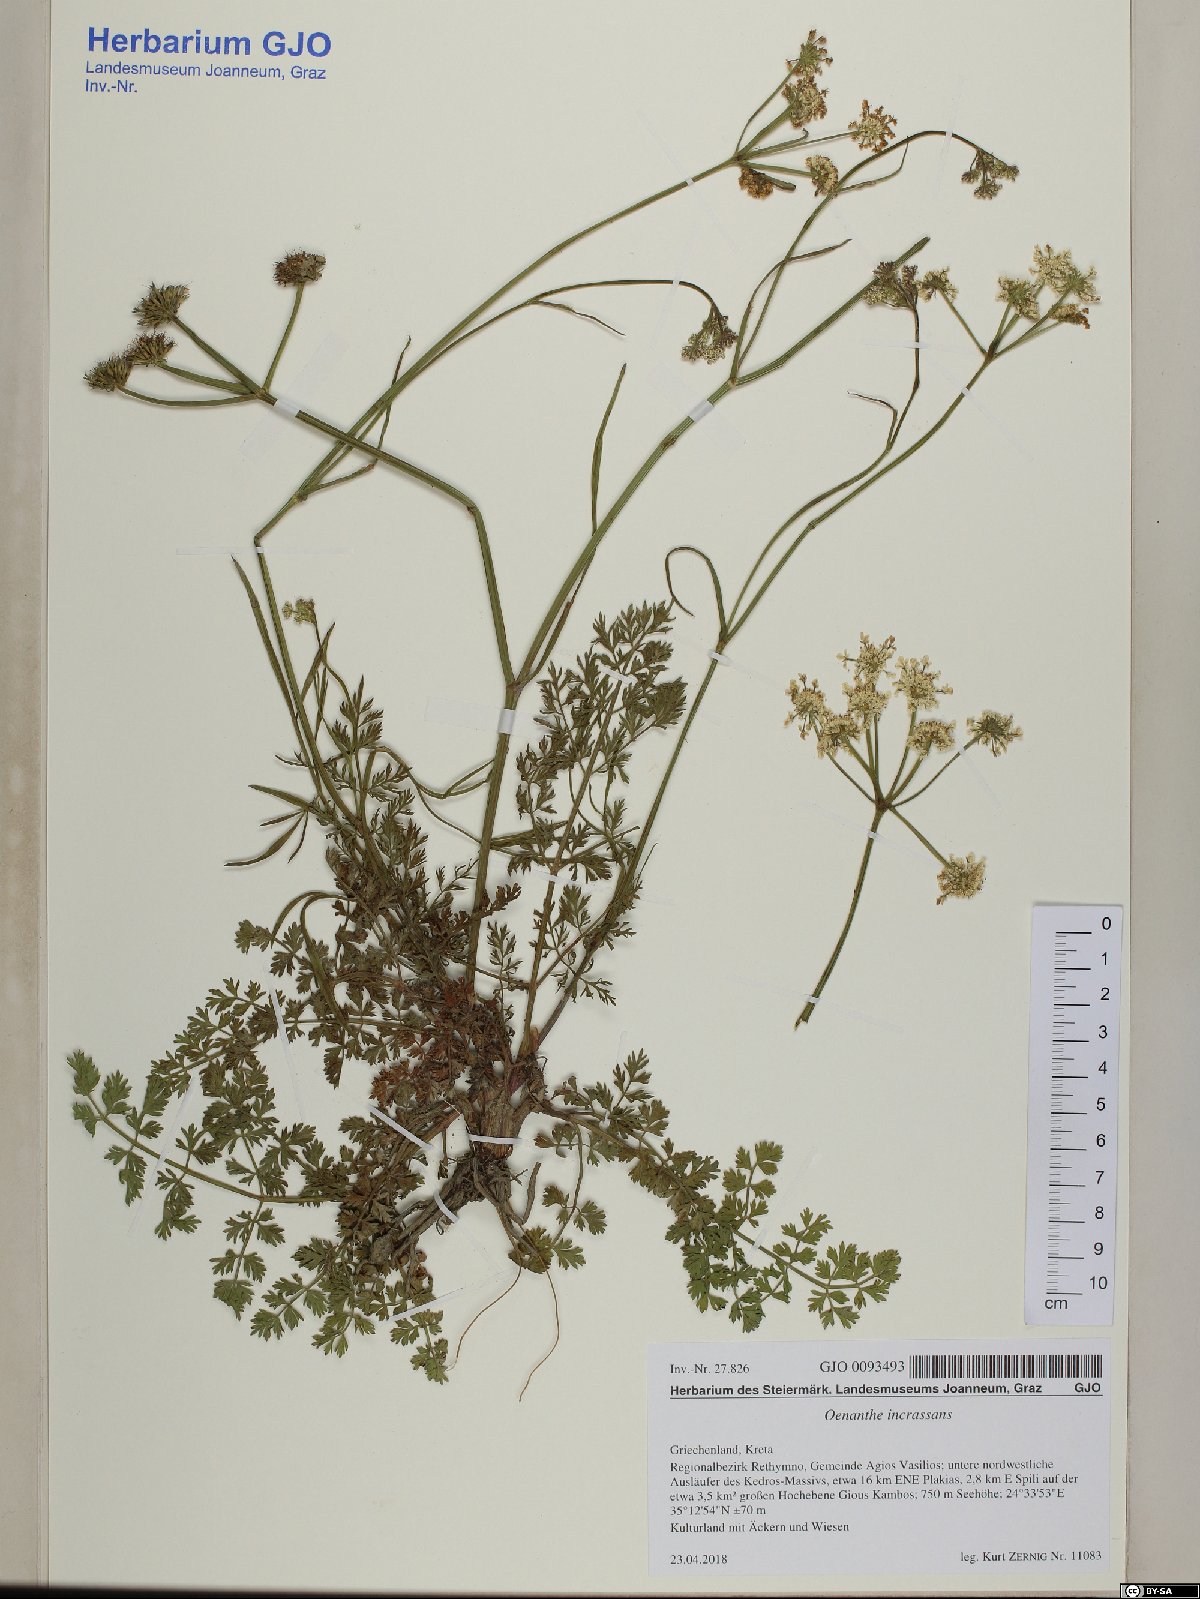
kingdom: Plantae
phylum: Tracheophyta
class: Magnoliopsida
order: Apiales
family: Apiaceae
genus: Oenanthe
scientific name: Oenanthe pimpinelloides
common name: Corky-fruited water-dropwort
